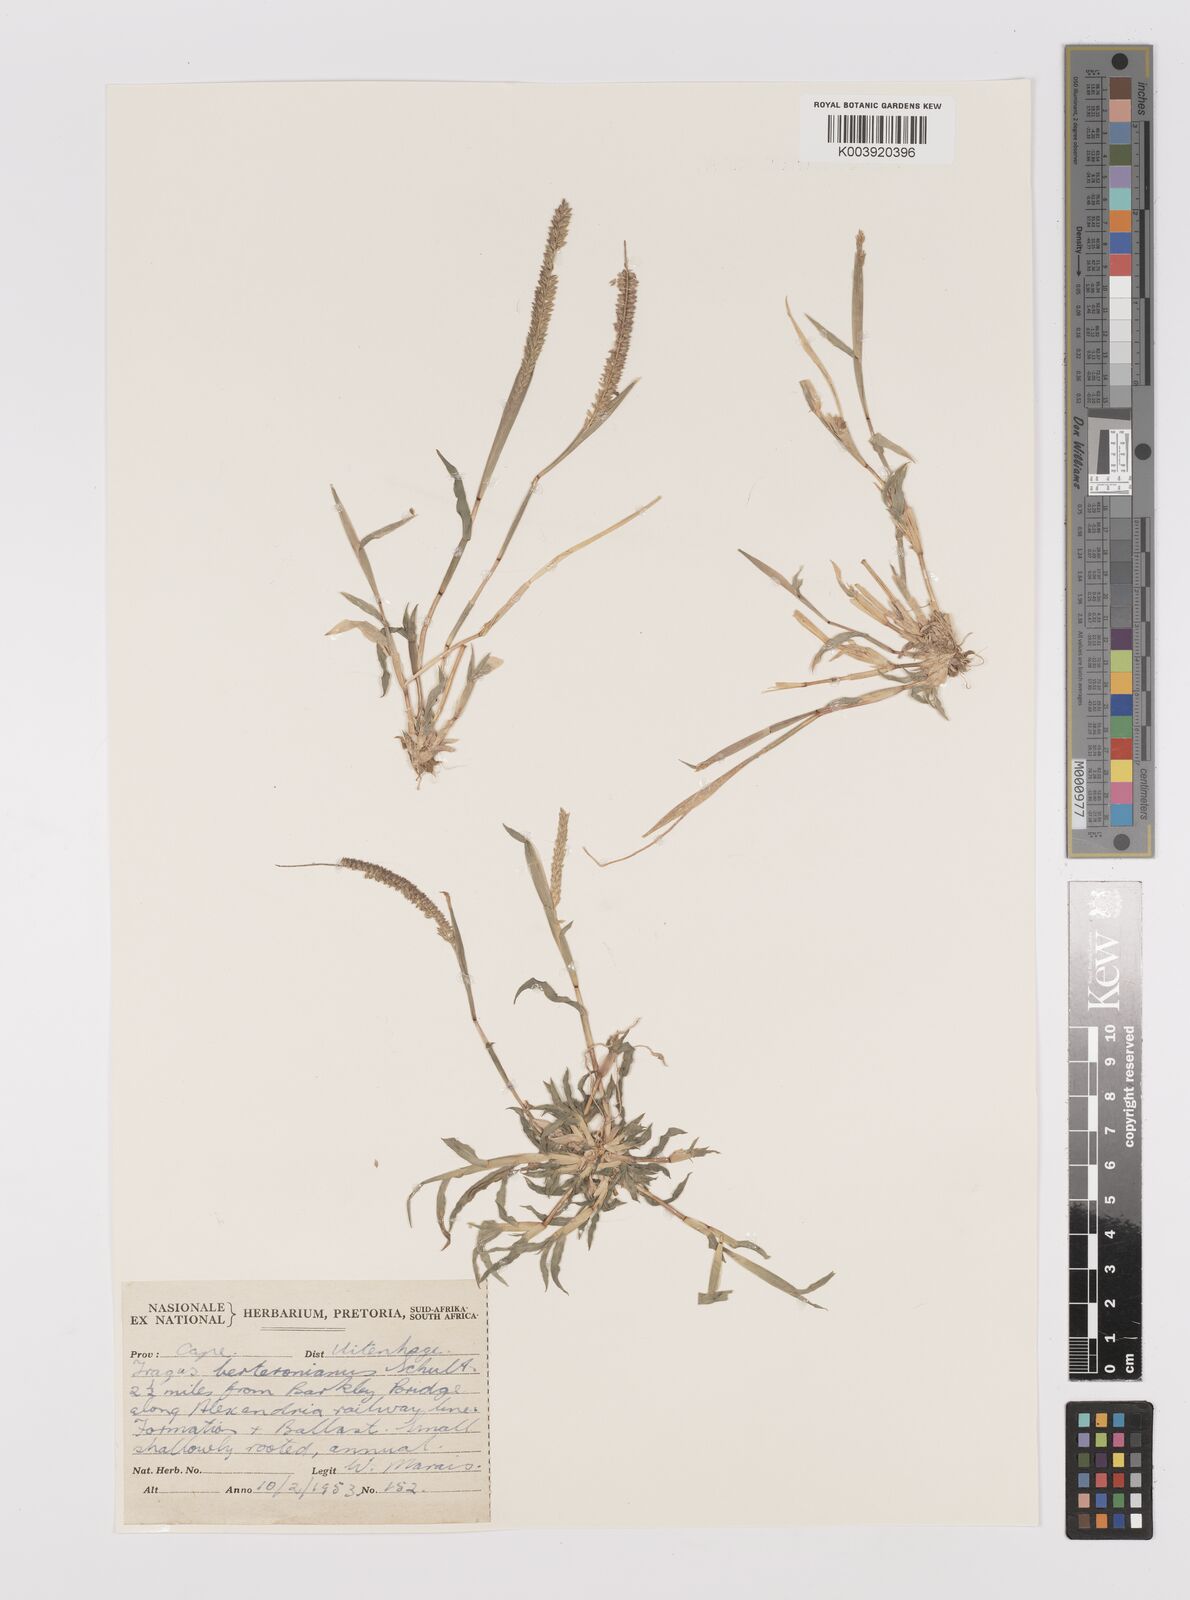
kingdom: Plantae
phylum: Tracheophyta
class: Liliopsida
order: Poales
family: Poaceae
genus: Tragus
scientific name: Tragus berteronianus
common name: African bur-grass
